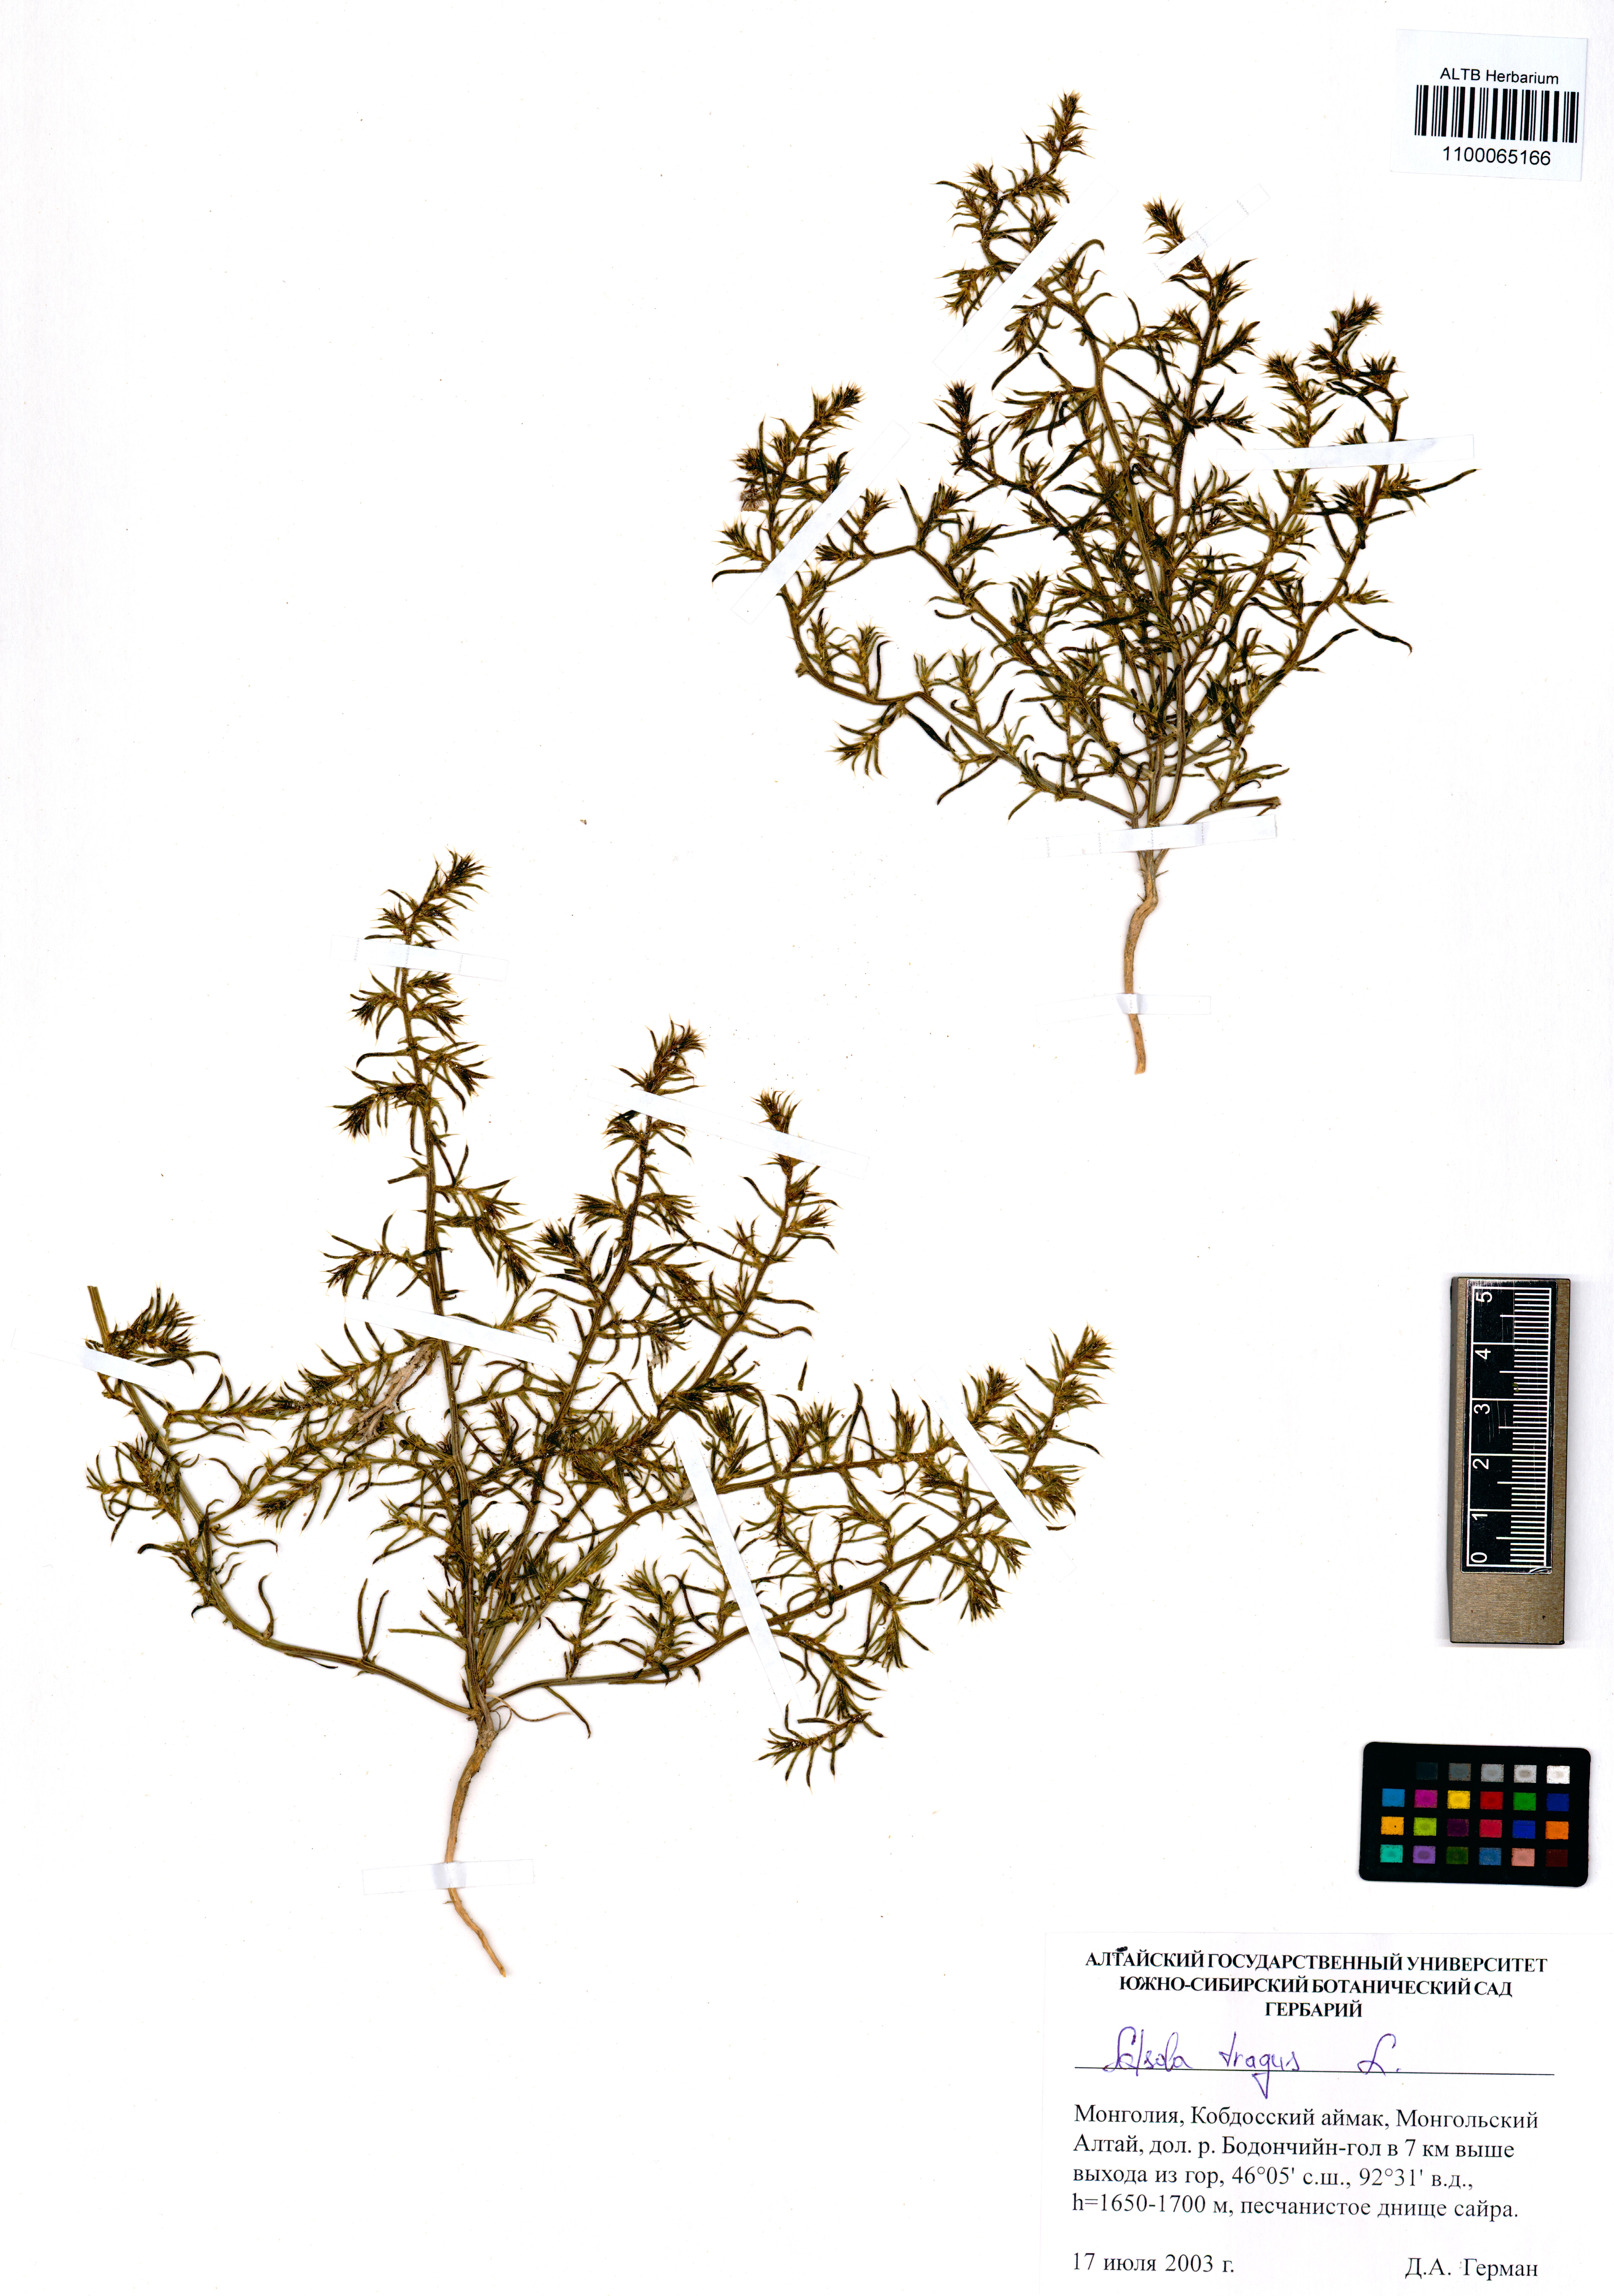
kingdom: Plantae
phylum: Tracheophyta
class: Magnoliopsida
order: Caryophyllales
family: Amaranthaceae
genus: Salsola
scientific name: Salsola tragus
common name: Prickly russian thistle
